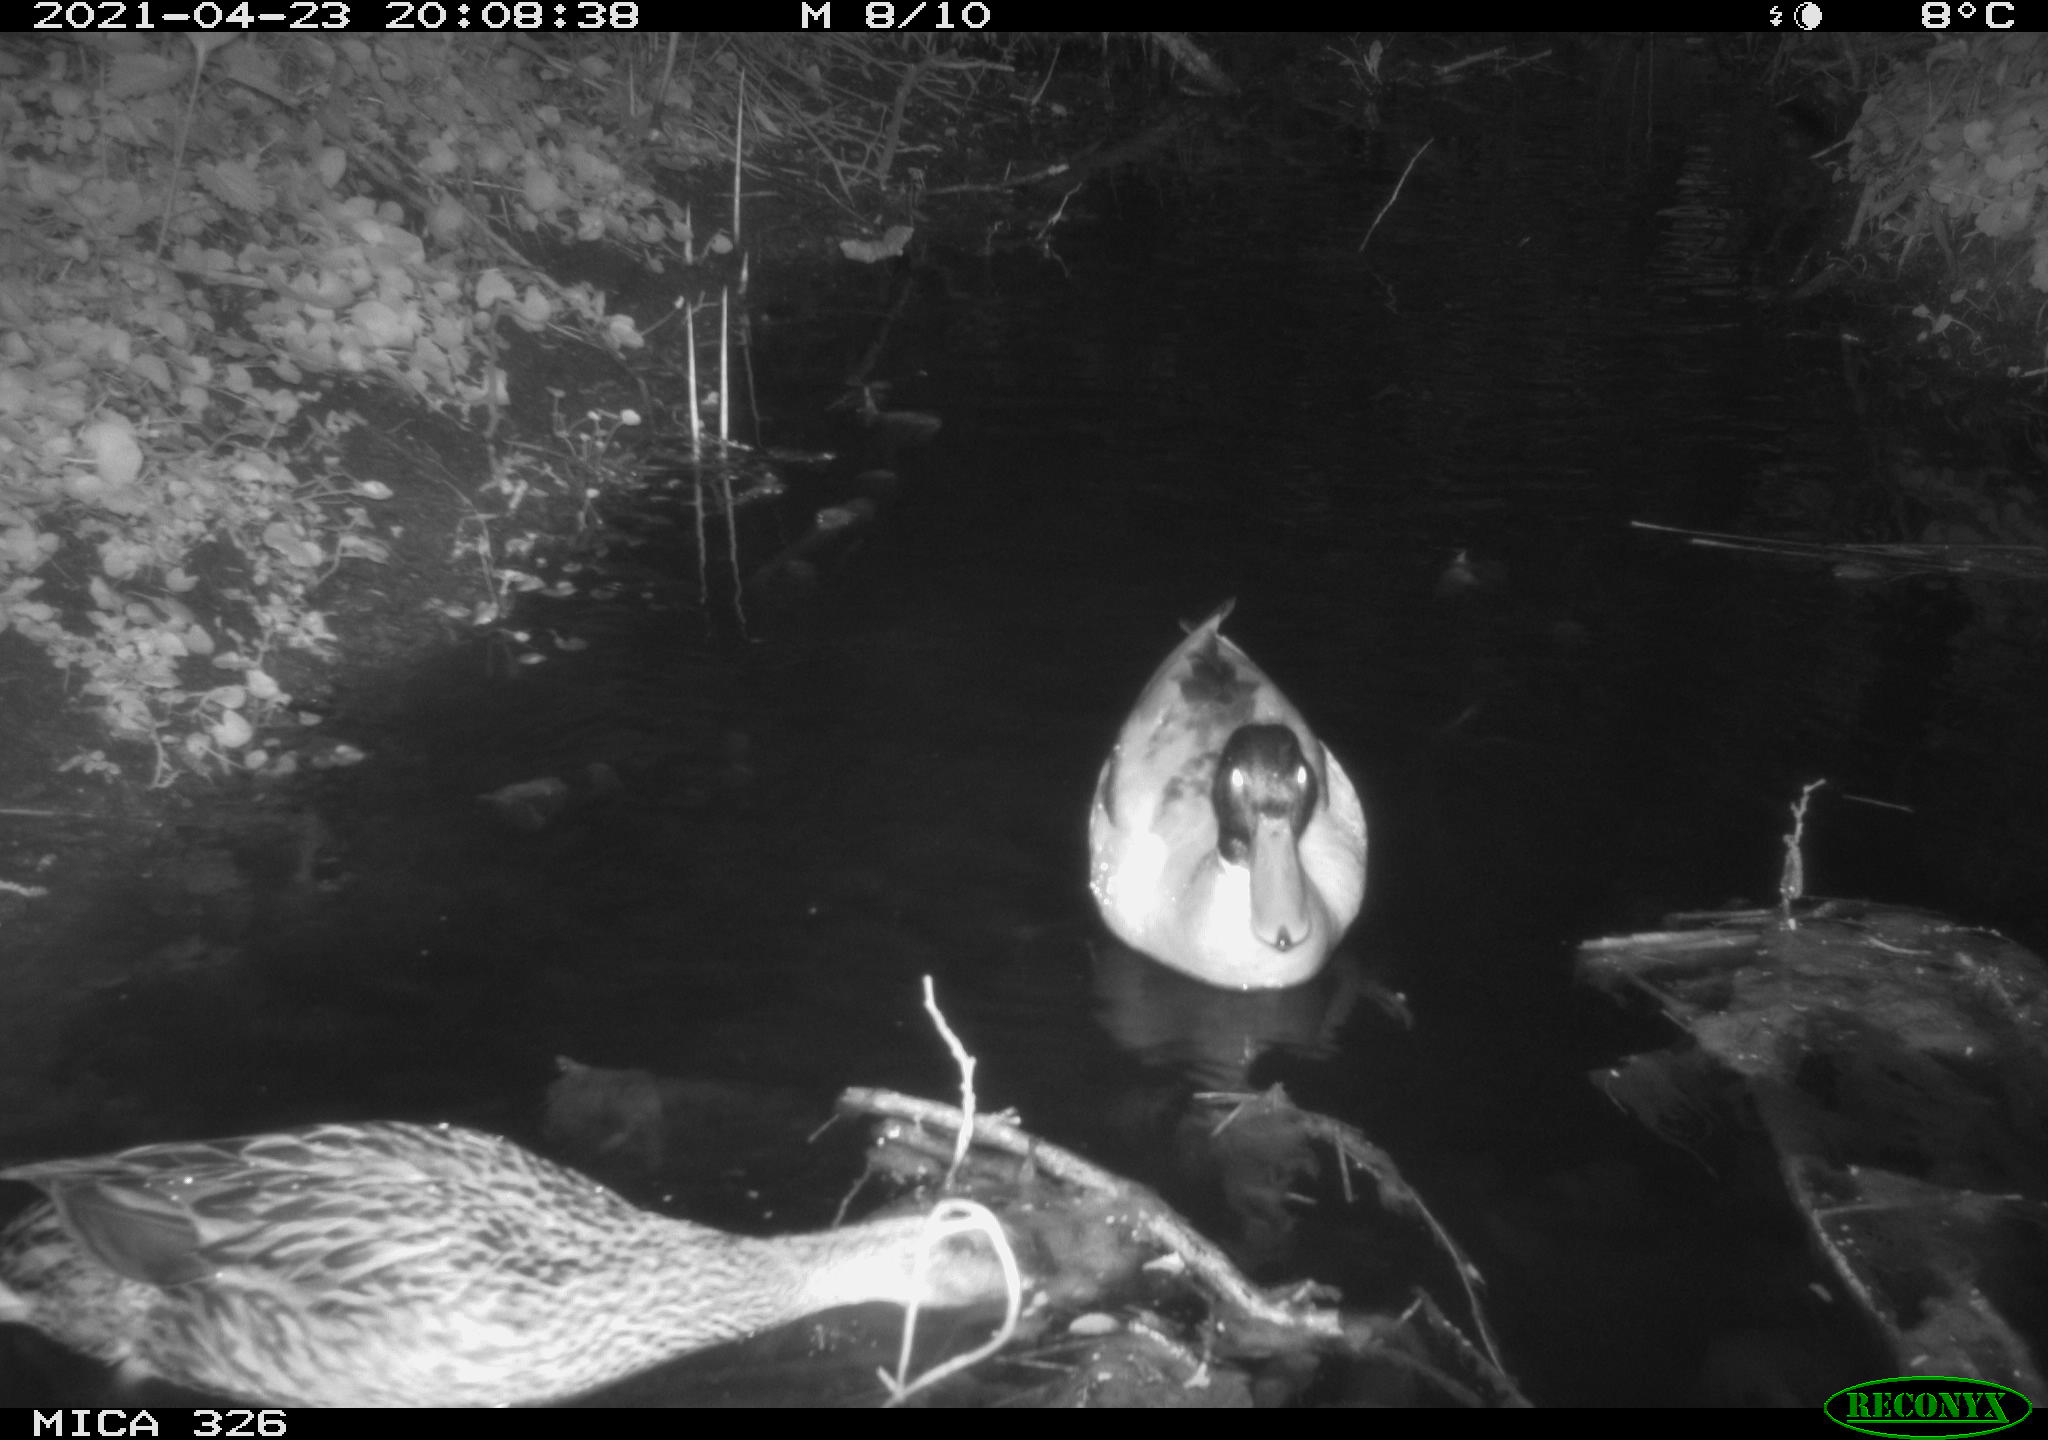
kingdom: Animalia
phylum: Chordata
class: Aves
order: Anseriformes
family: Anatidae
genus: Anas
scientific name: Anas platyrhynchos
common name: Mallard
